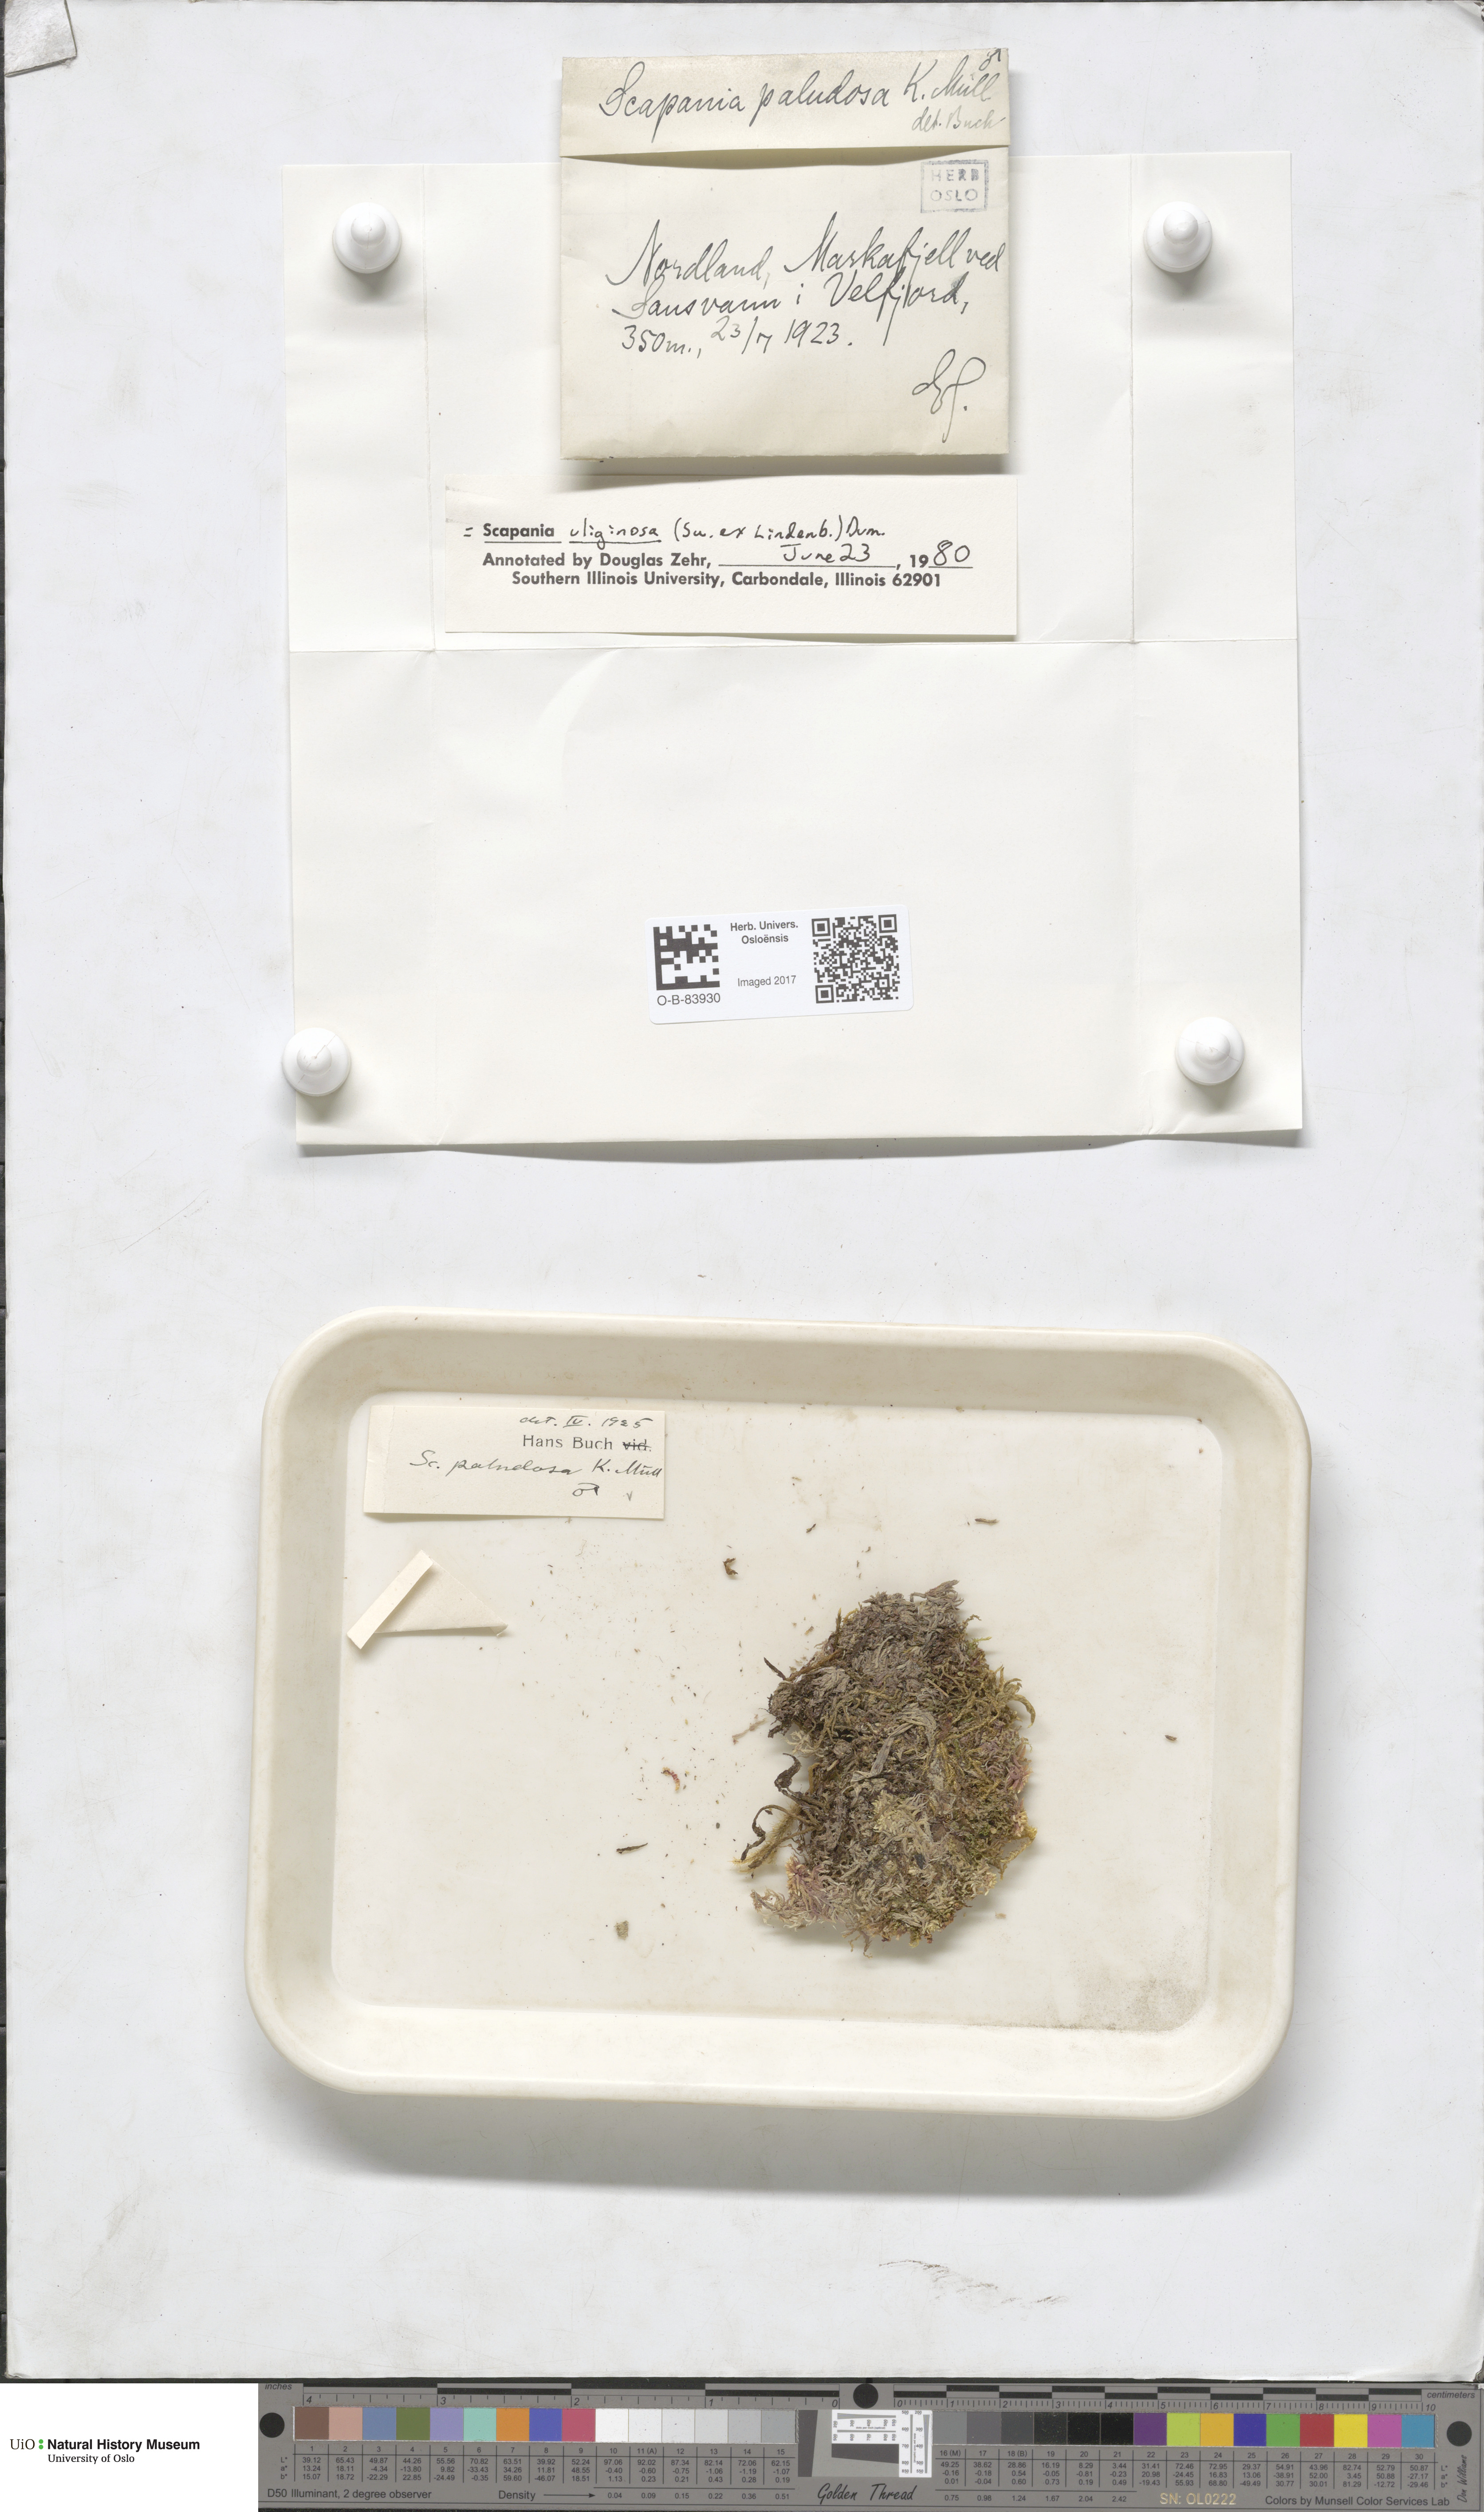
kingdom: Plantae
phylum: Marchantiophyta
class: Jungermanniopsida
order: Jungermanniales
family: Scapaniaceae
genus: Scapania
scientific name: Scapania uliginosa
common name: Marsh earwort
